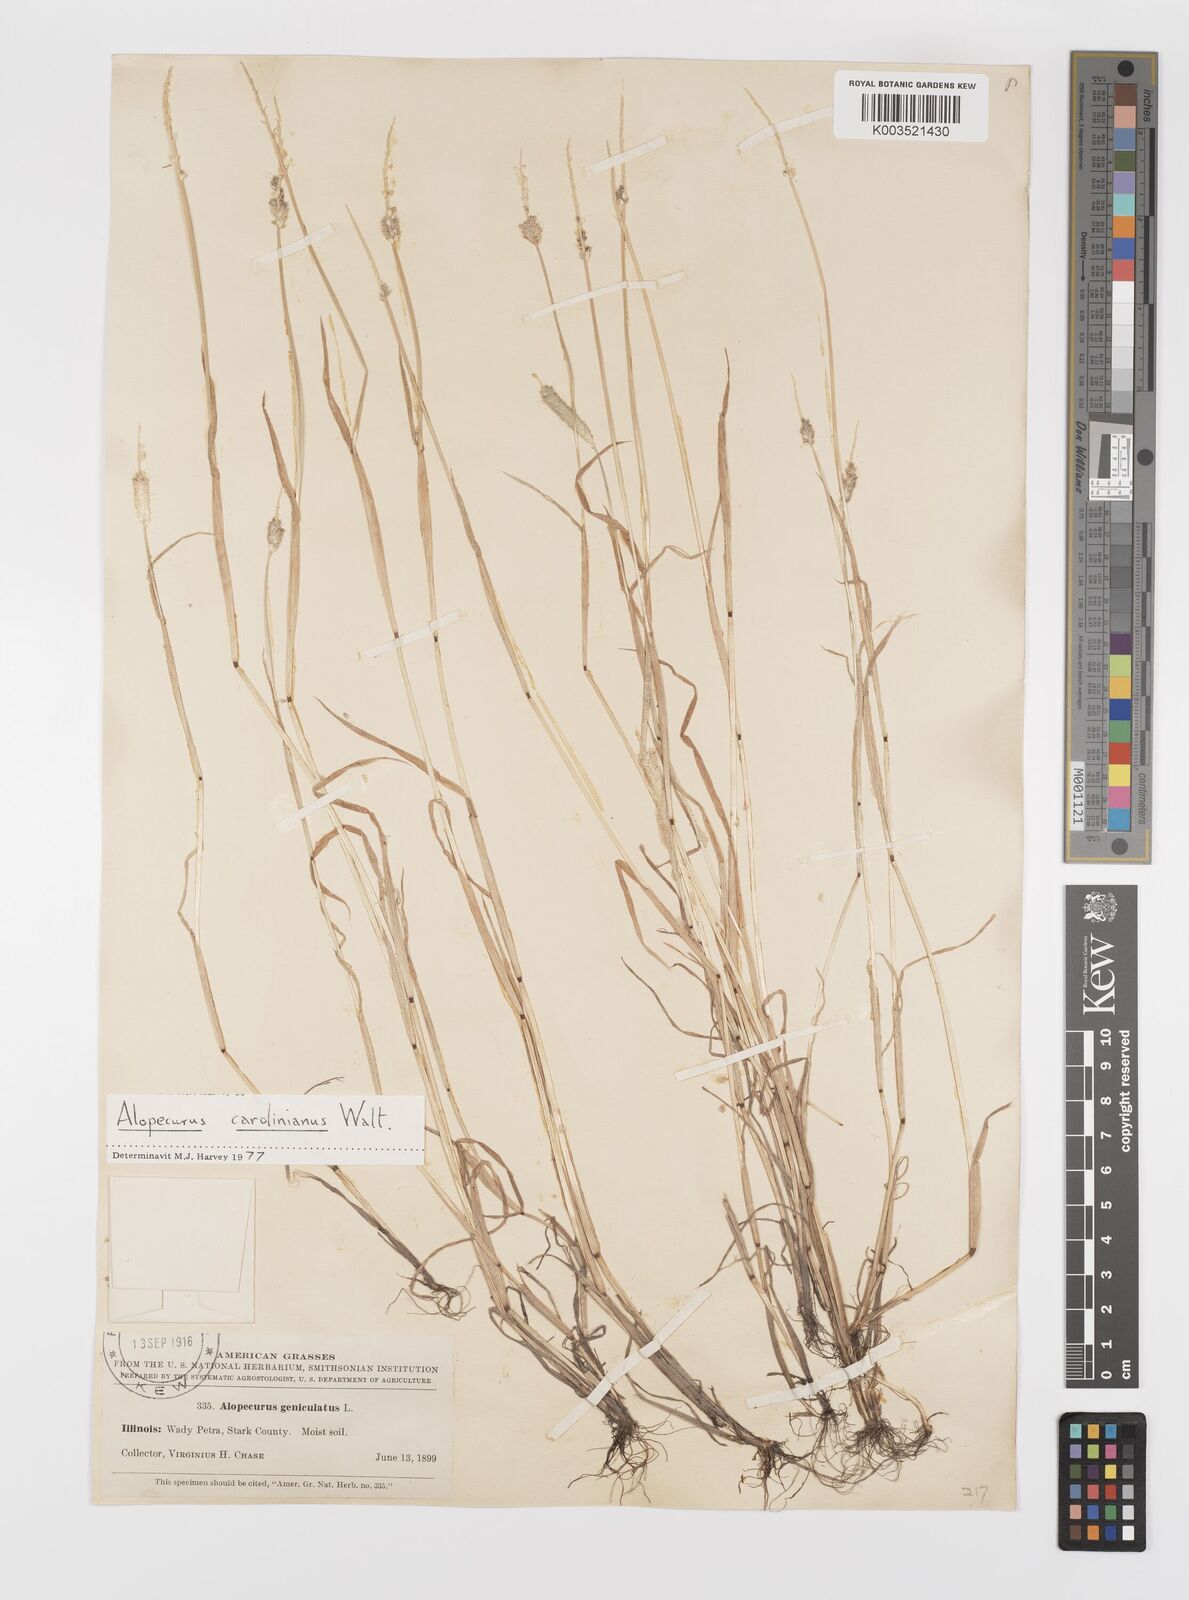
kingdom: Plantae
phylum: Tracheophyta
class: Liliopsida
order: Poales
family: Poaceae
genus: Alopecurus
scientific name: Alopecurus carolinianus
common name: Tufted foxtail
